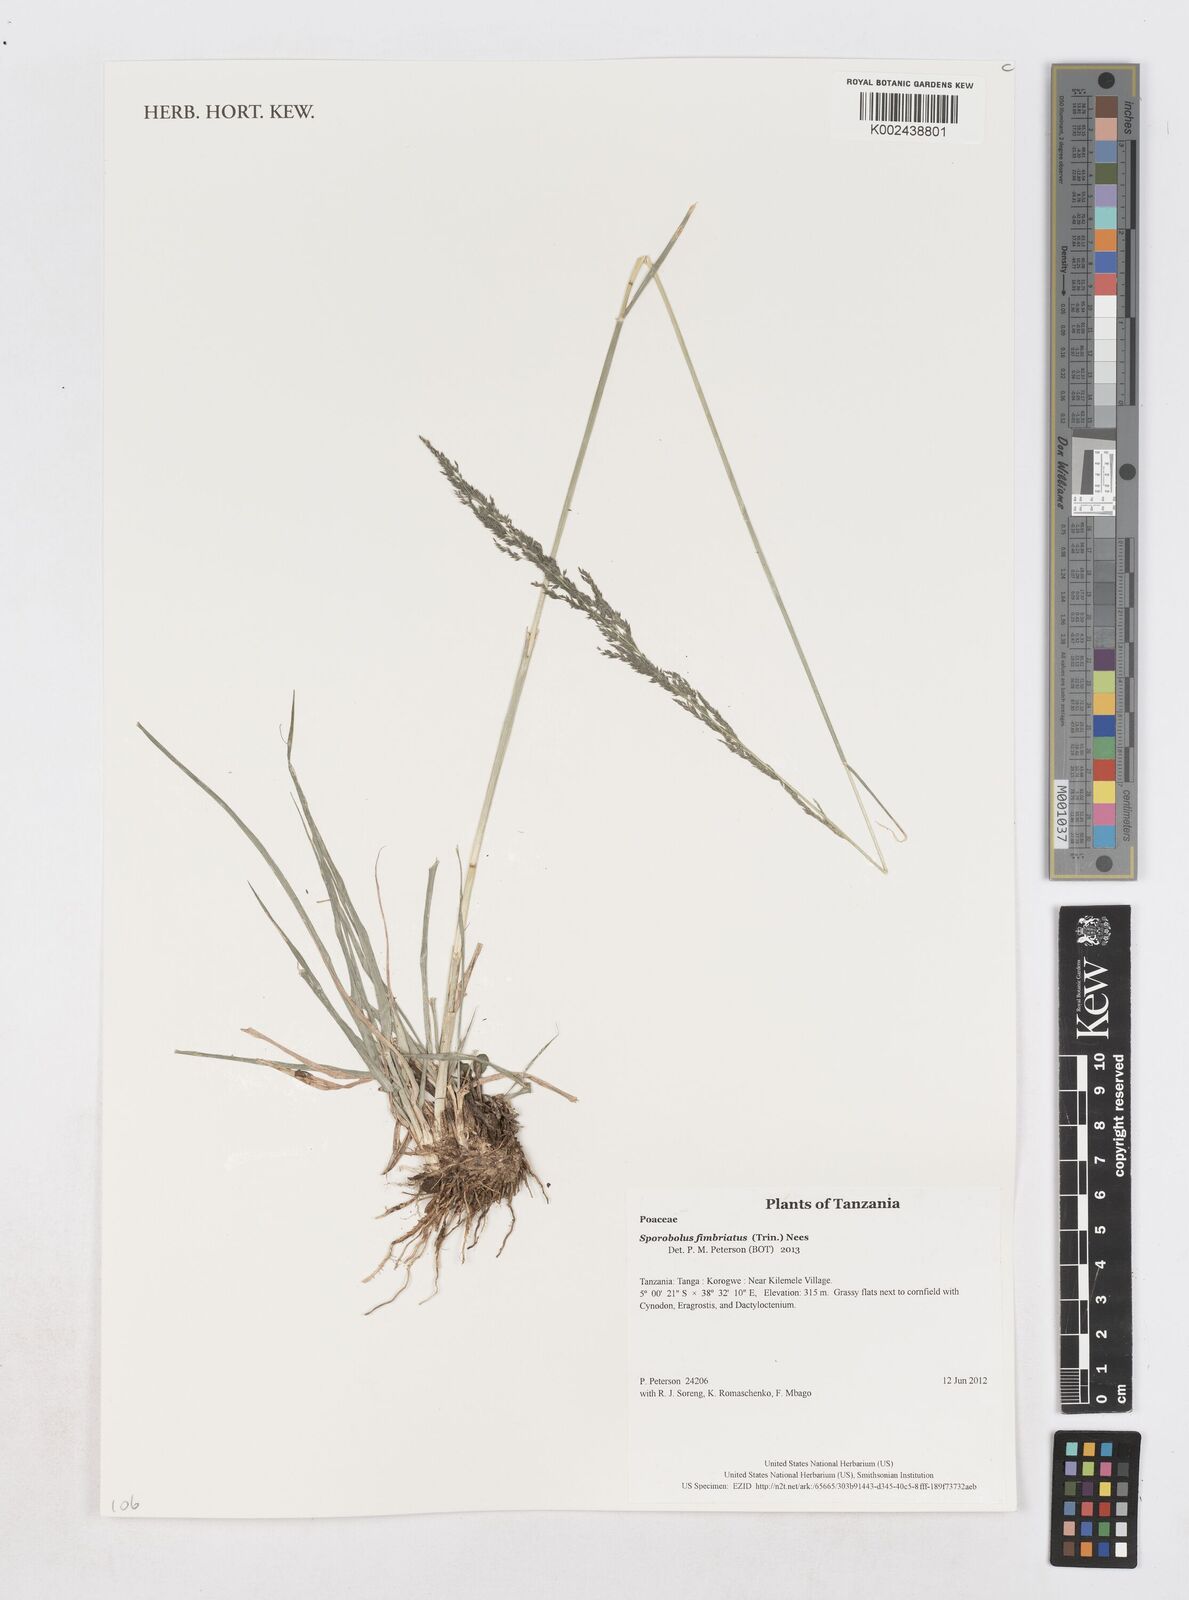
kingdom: Plantae
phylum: Tracheophyta
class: Liliopsida
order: Poales
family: Poaceae
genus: Sporobolus
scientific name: Sporobolus fimbriatus
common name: Fringed dropseed
